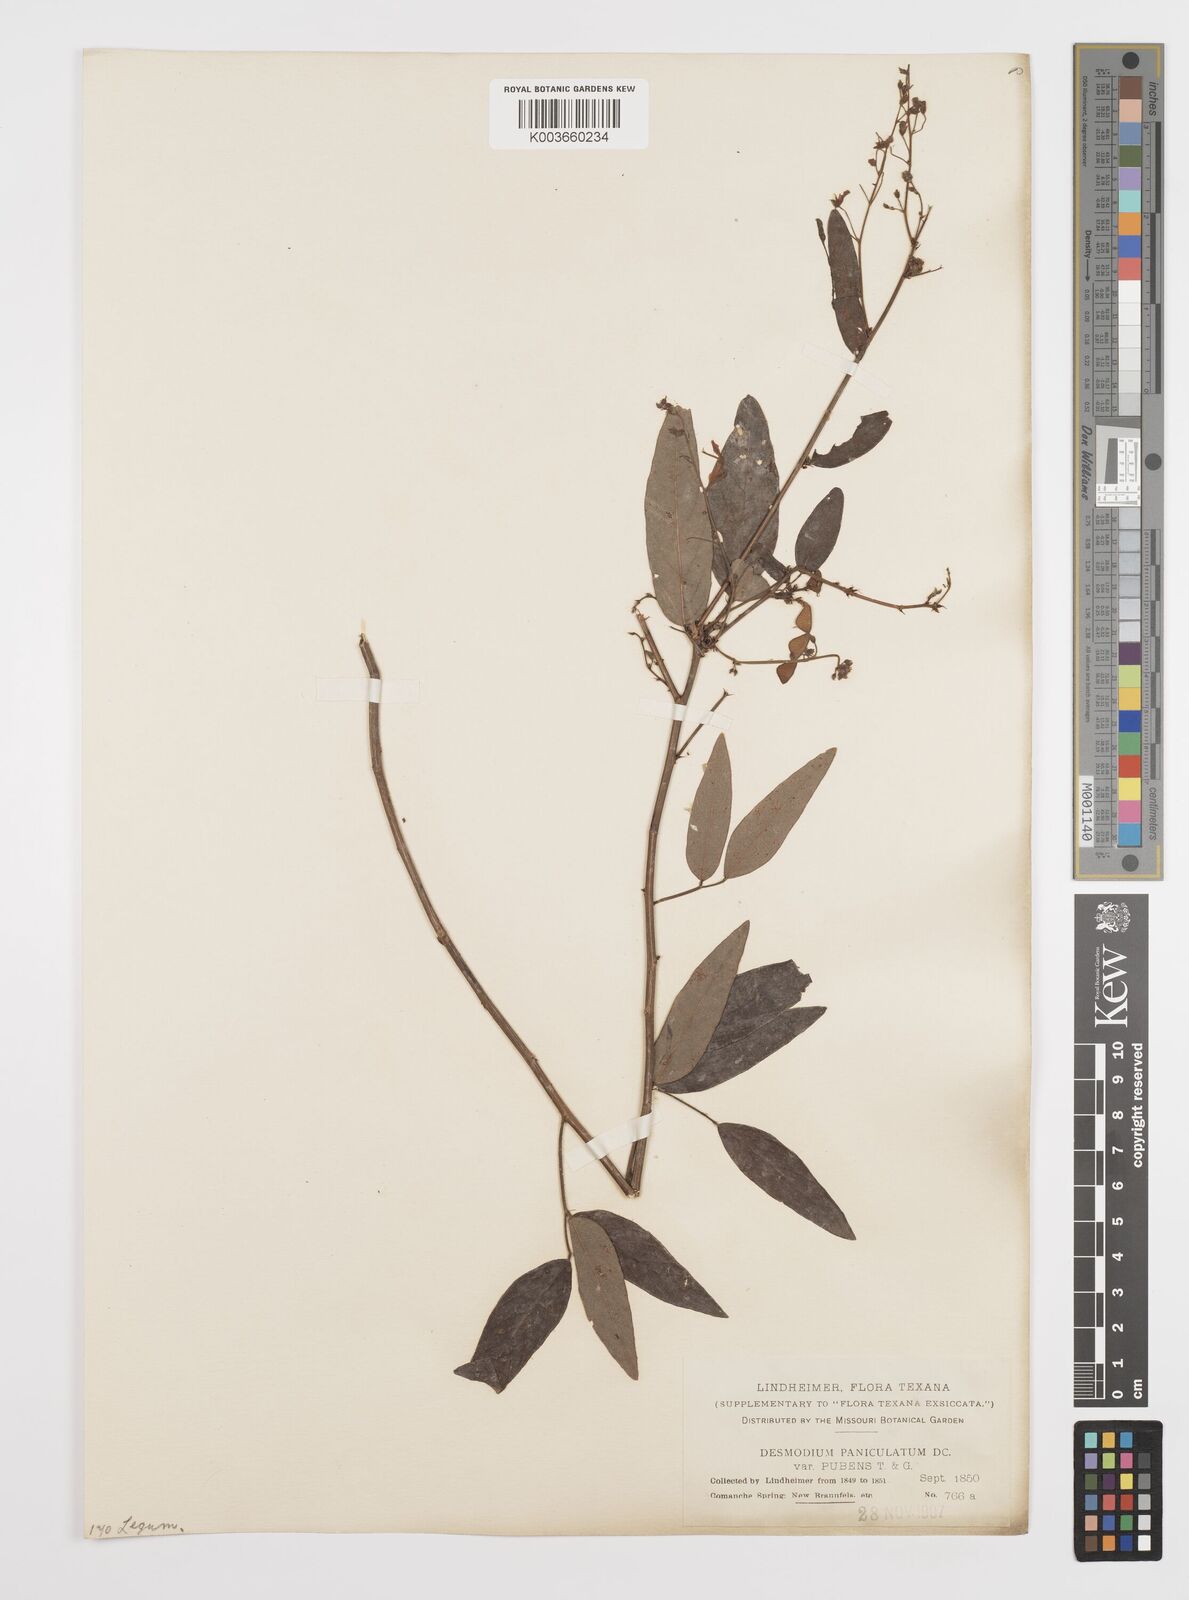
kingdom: Plantae
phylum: Tracheophyta
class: Magnoliopsida
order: Fabales
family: Fabaceae
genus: Desmodium
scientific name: Desmodium paniculatum
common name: Panicled tick-clover
